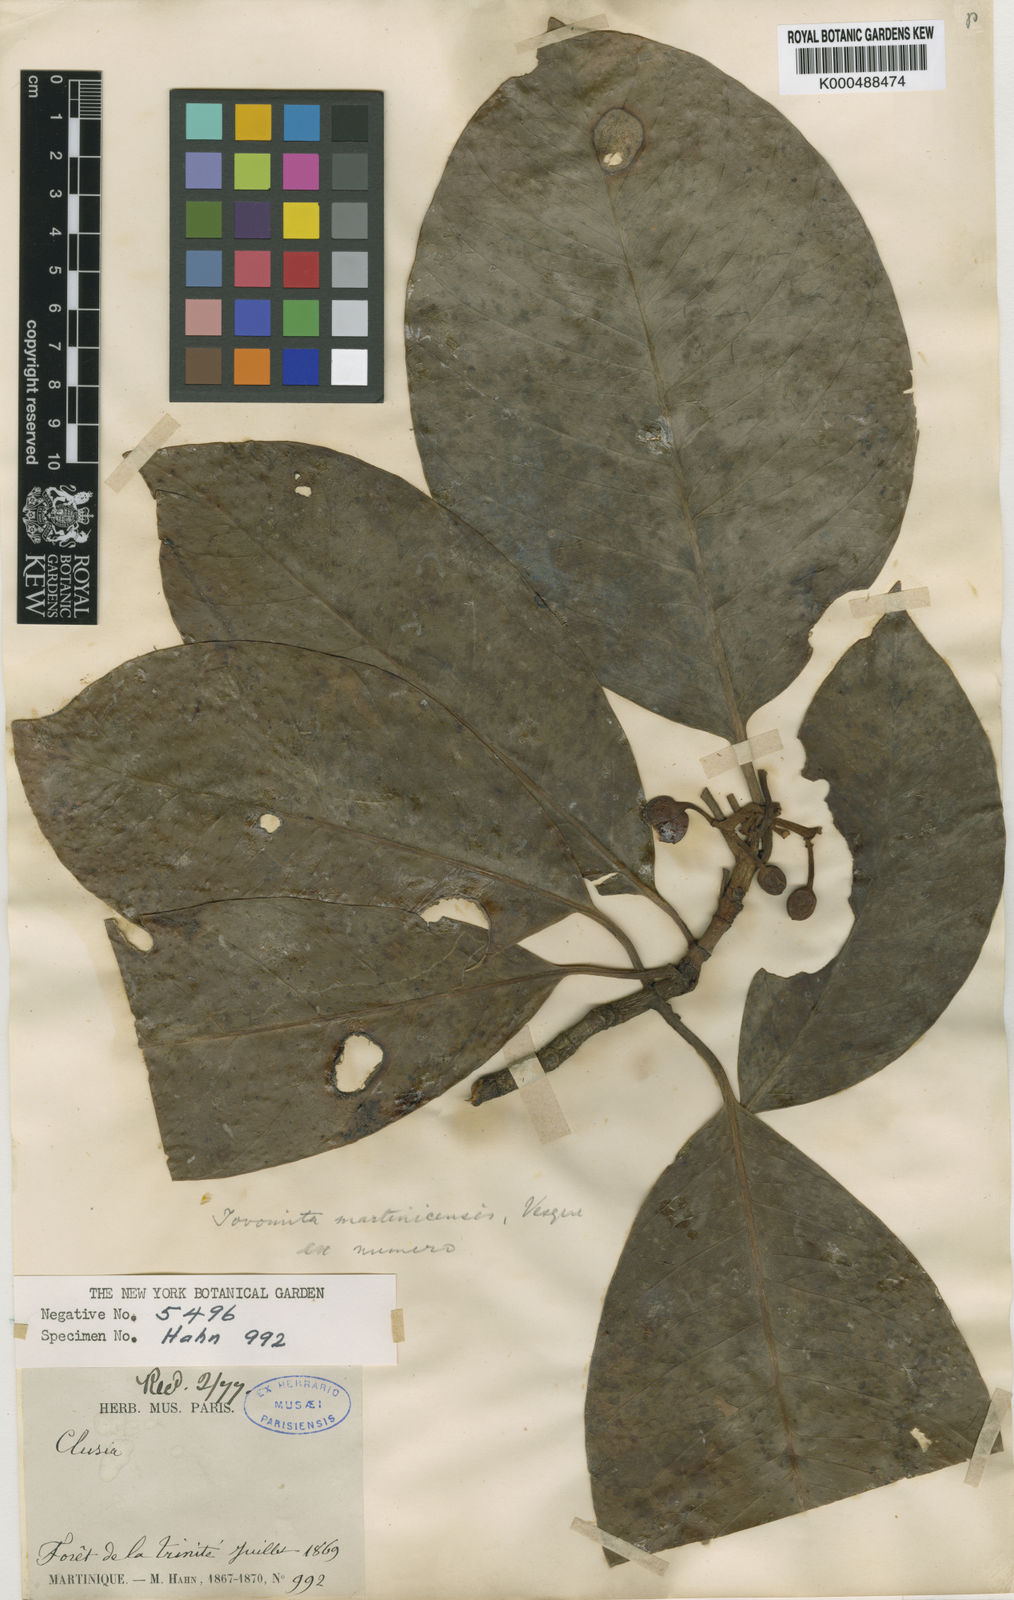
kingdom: Plantae
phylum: Tracheophyta
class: Magnoliopsida
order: Malpighiales
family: Clusiaceae
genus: Tovomita
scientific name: Tovomita plumieri
